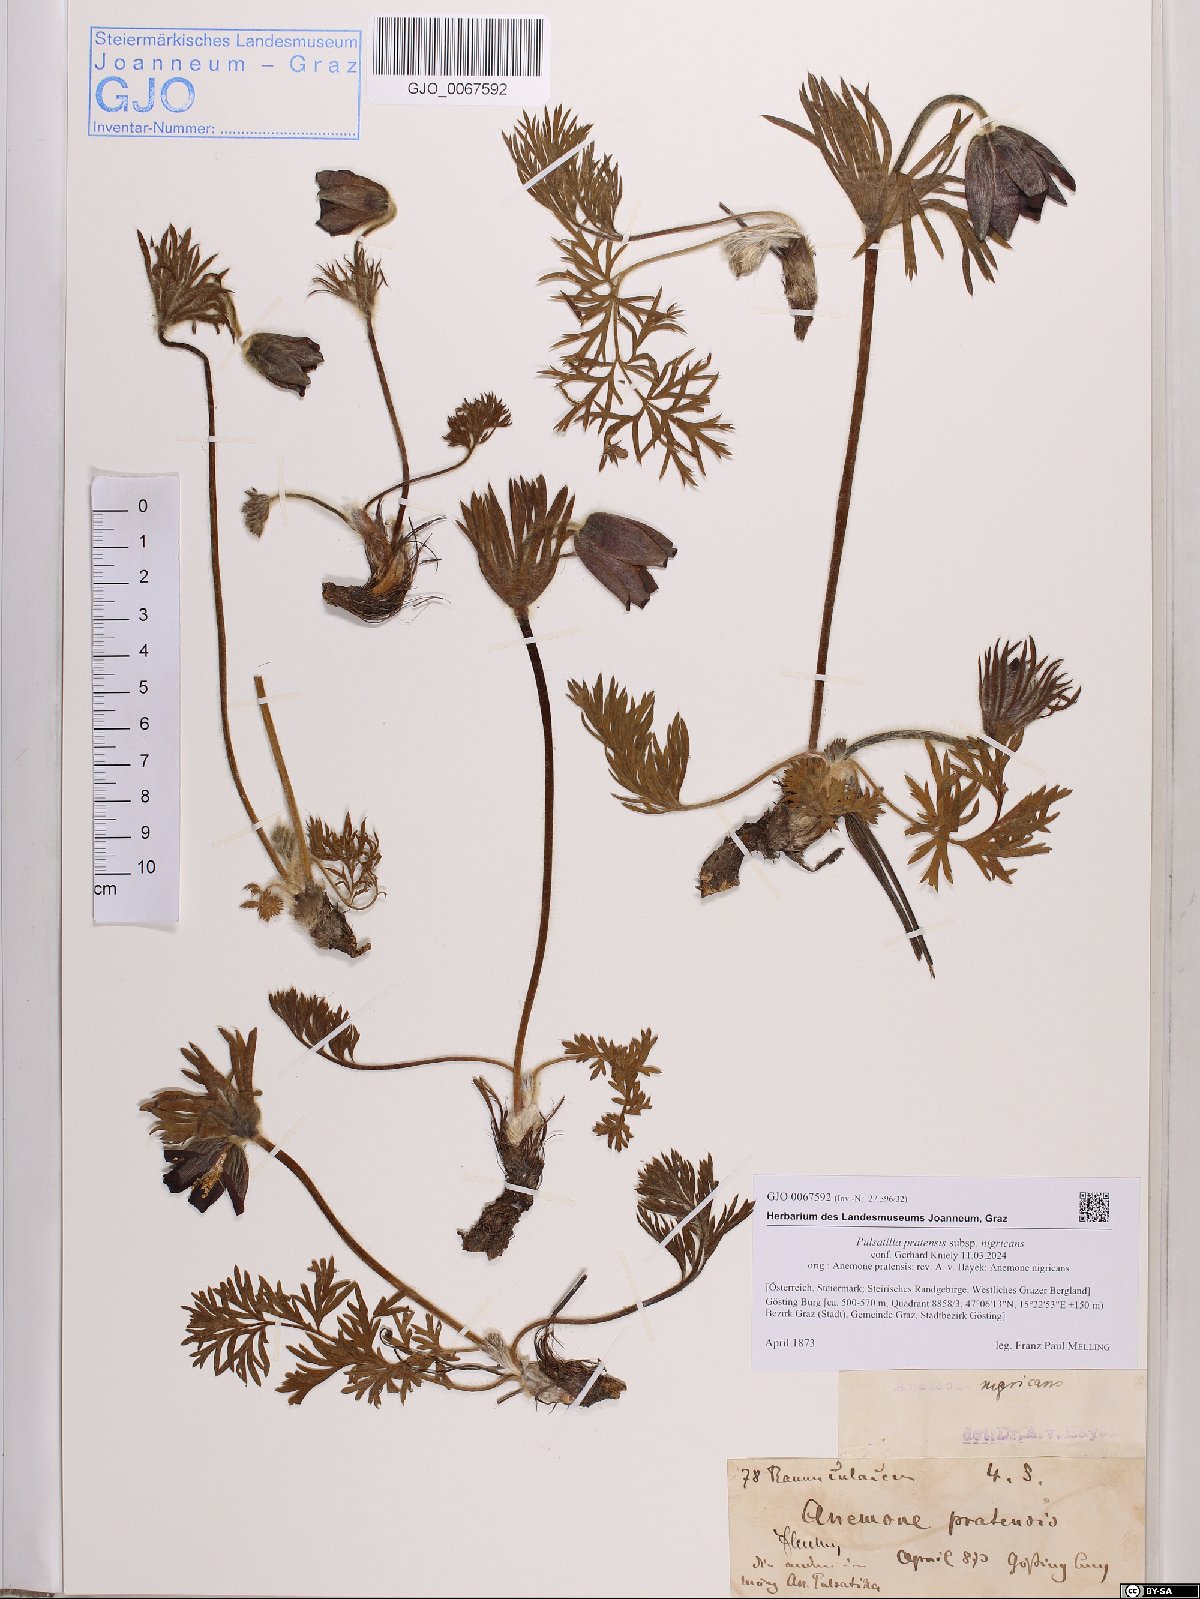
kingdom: Plantae
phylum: Tracheophyta
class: Magnoliopsida
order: Ranunculales
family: Ranunculaceae
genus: Pulsatilla
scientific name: Pulsatilla pratensis
